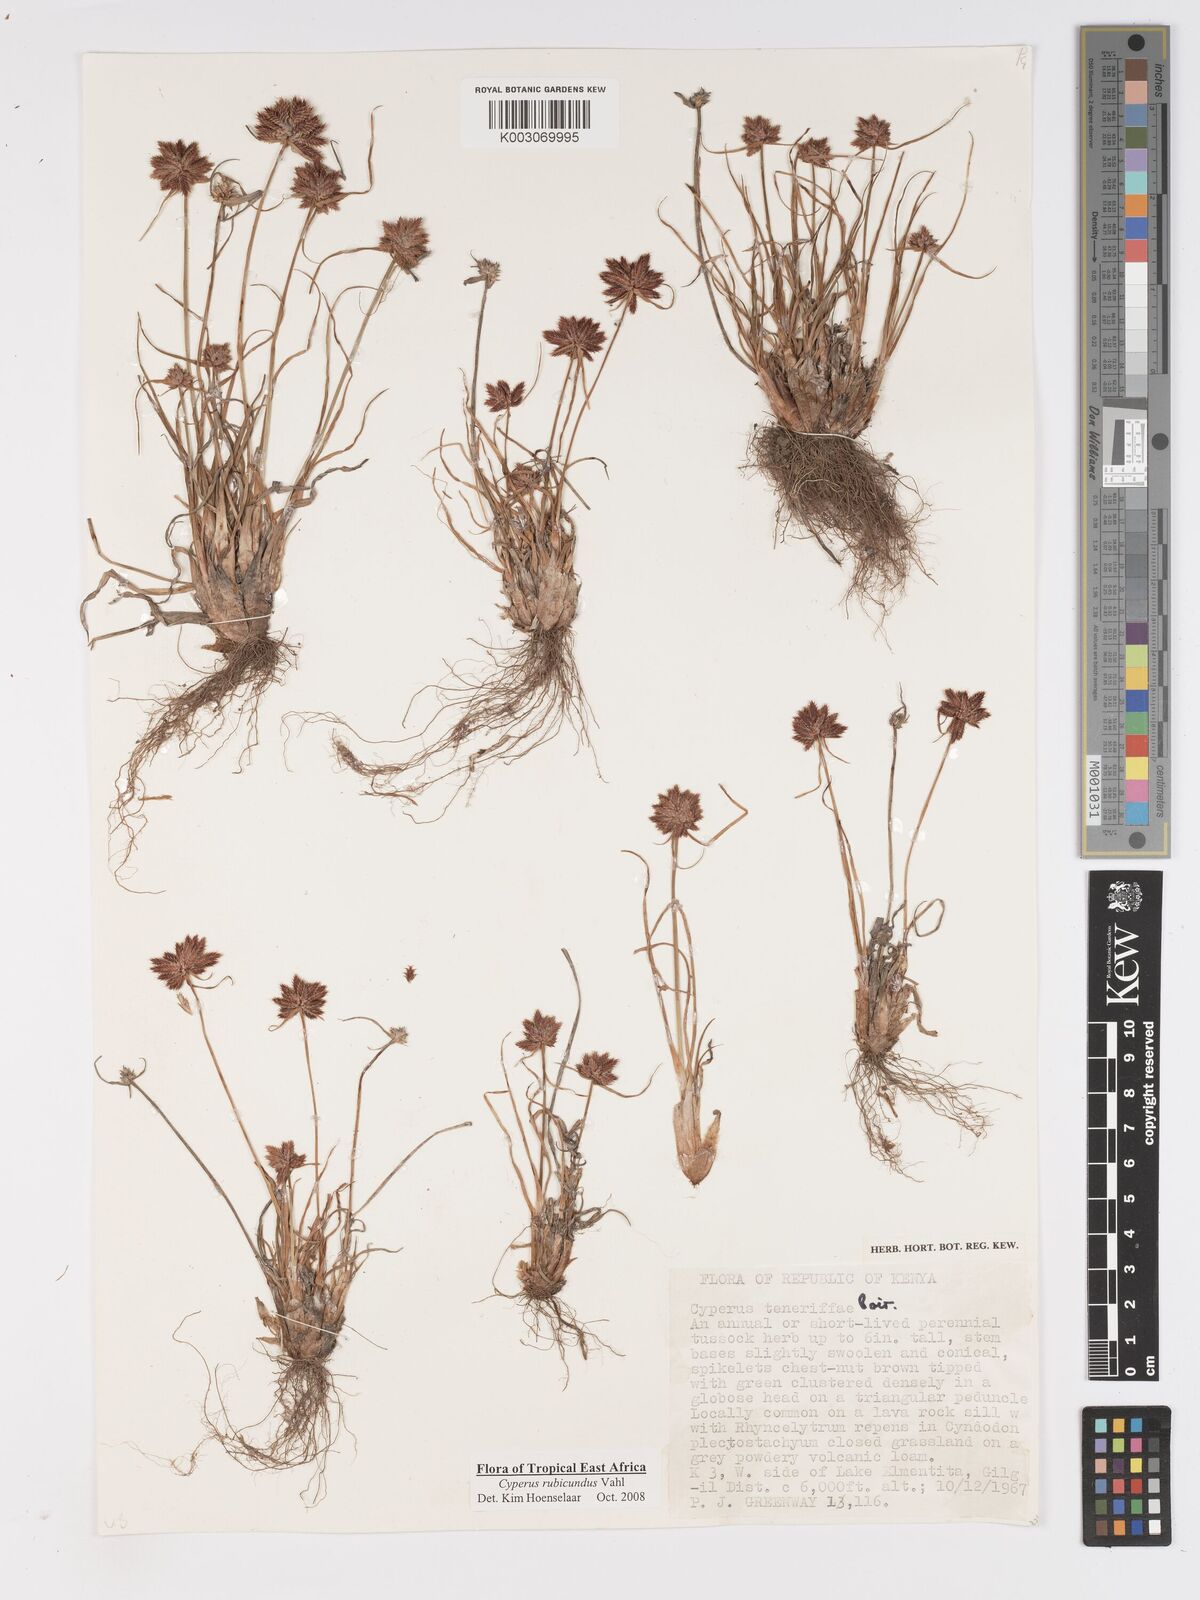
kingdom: Plantae
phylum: Tracheophyta
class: Liliopsida
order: Poales
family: Cyperaceae
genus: Cyperus
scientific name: Cyperus rubicundus
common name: Coco-grass
